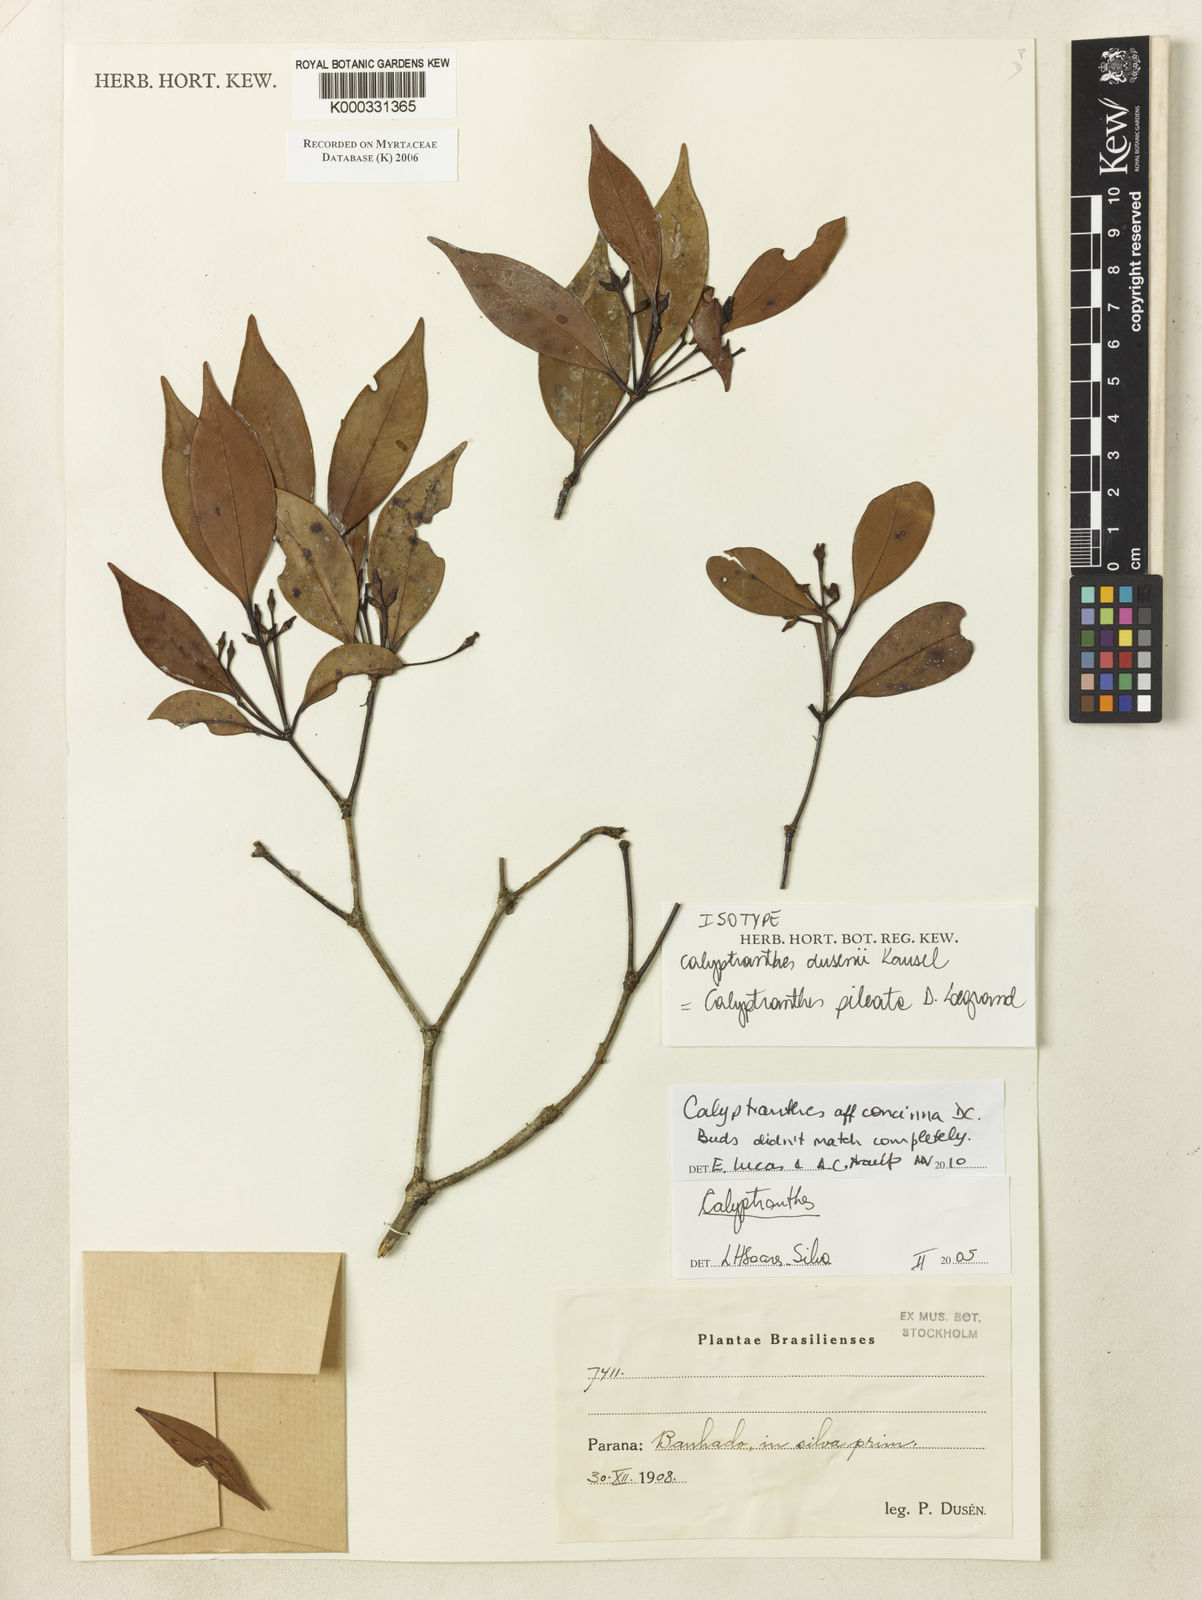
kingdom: Plantae
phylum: Tracheophyta
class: Magnoliopsida
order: Myrtales
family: Myrtaceae
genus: Myrcia
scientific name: Myrcia pileata
